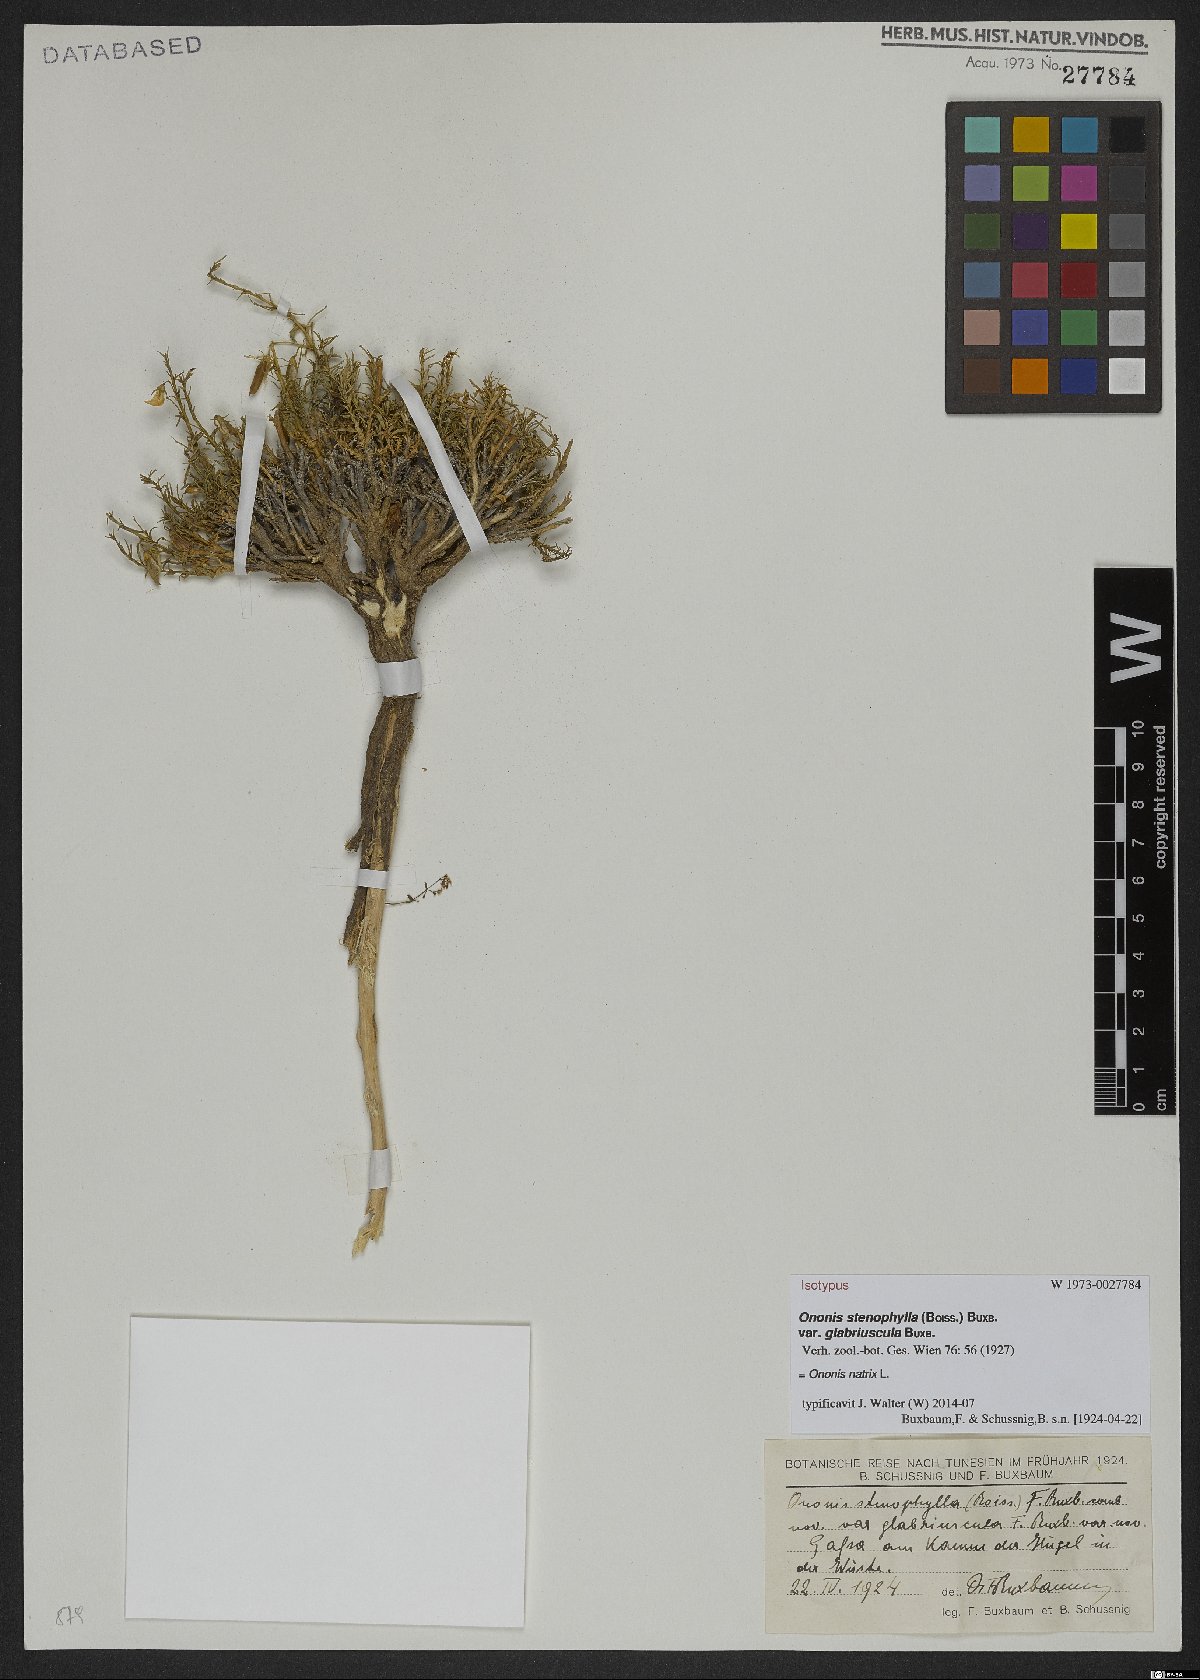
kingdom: Plantae
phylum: Tracheophyta
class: Magnoliopsida
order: Fabales
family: Fabaceae
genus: Ononis
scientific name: Ononis natrix
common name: Yellow restharrow
